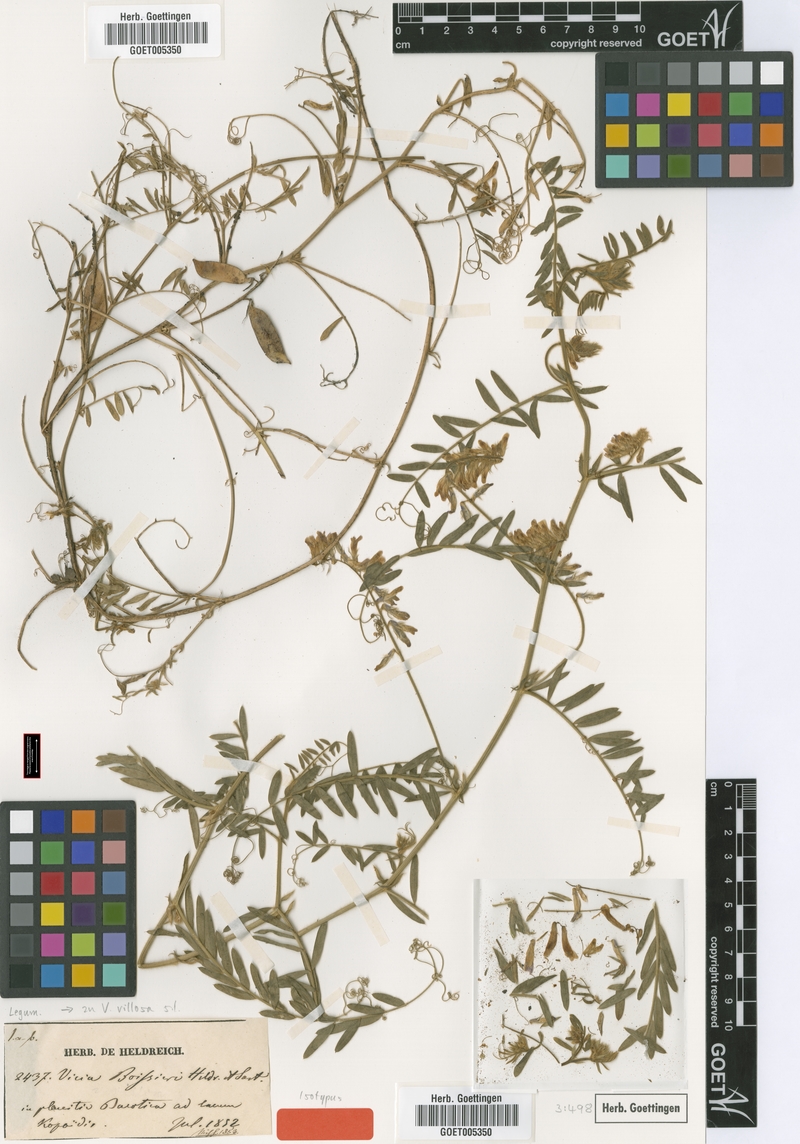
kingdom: Plantae
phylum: Tracheophyta
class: Magnoliopsida
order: Fabales
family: Fabaceae
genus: Vicia
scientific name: Vicia villosa
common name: Fodder vetch
